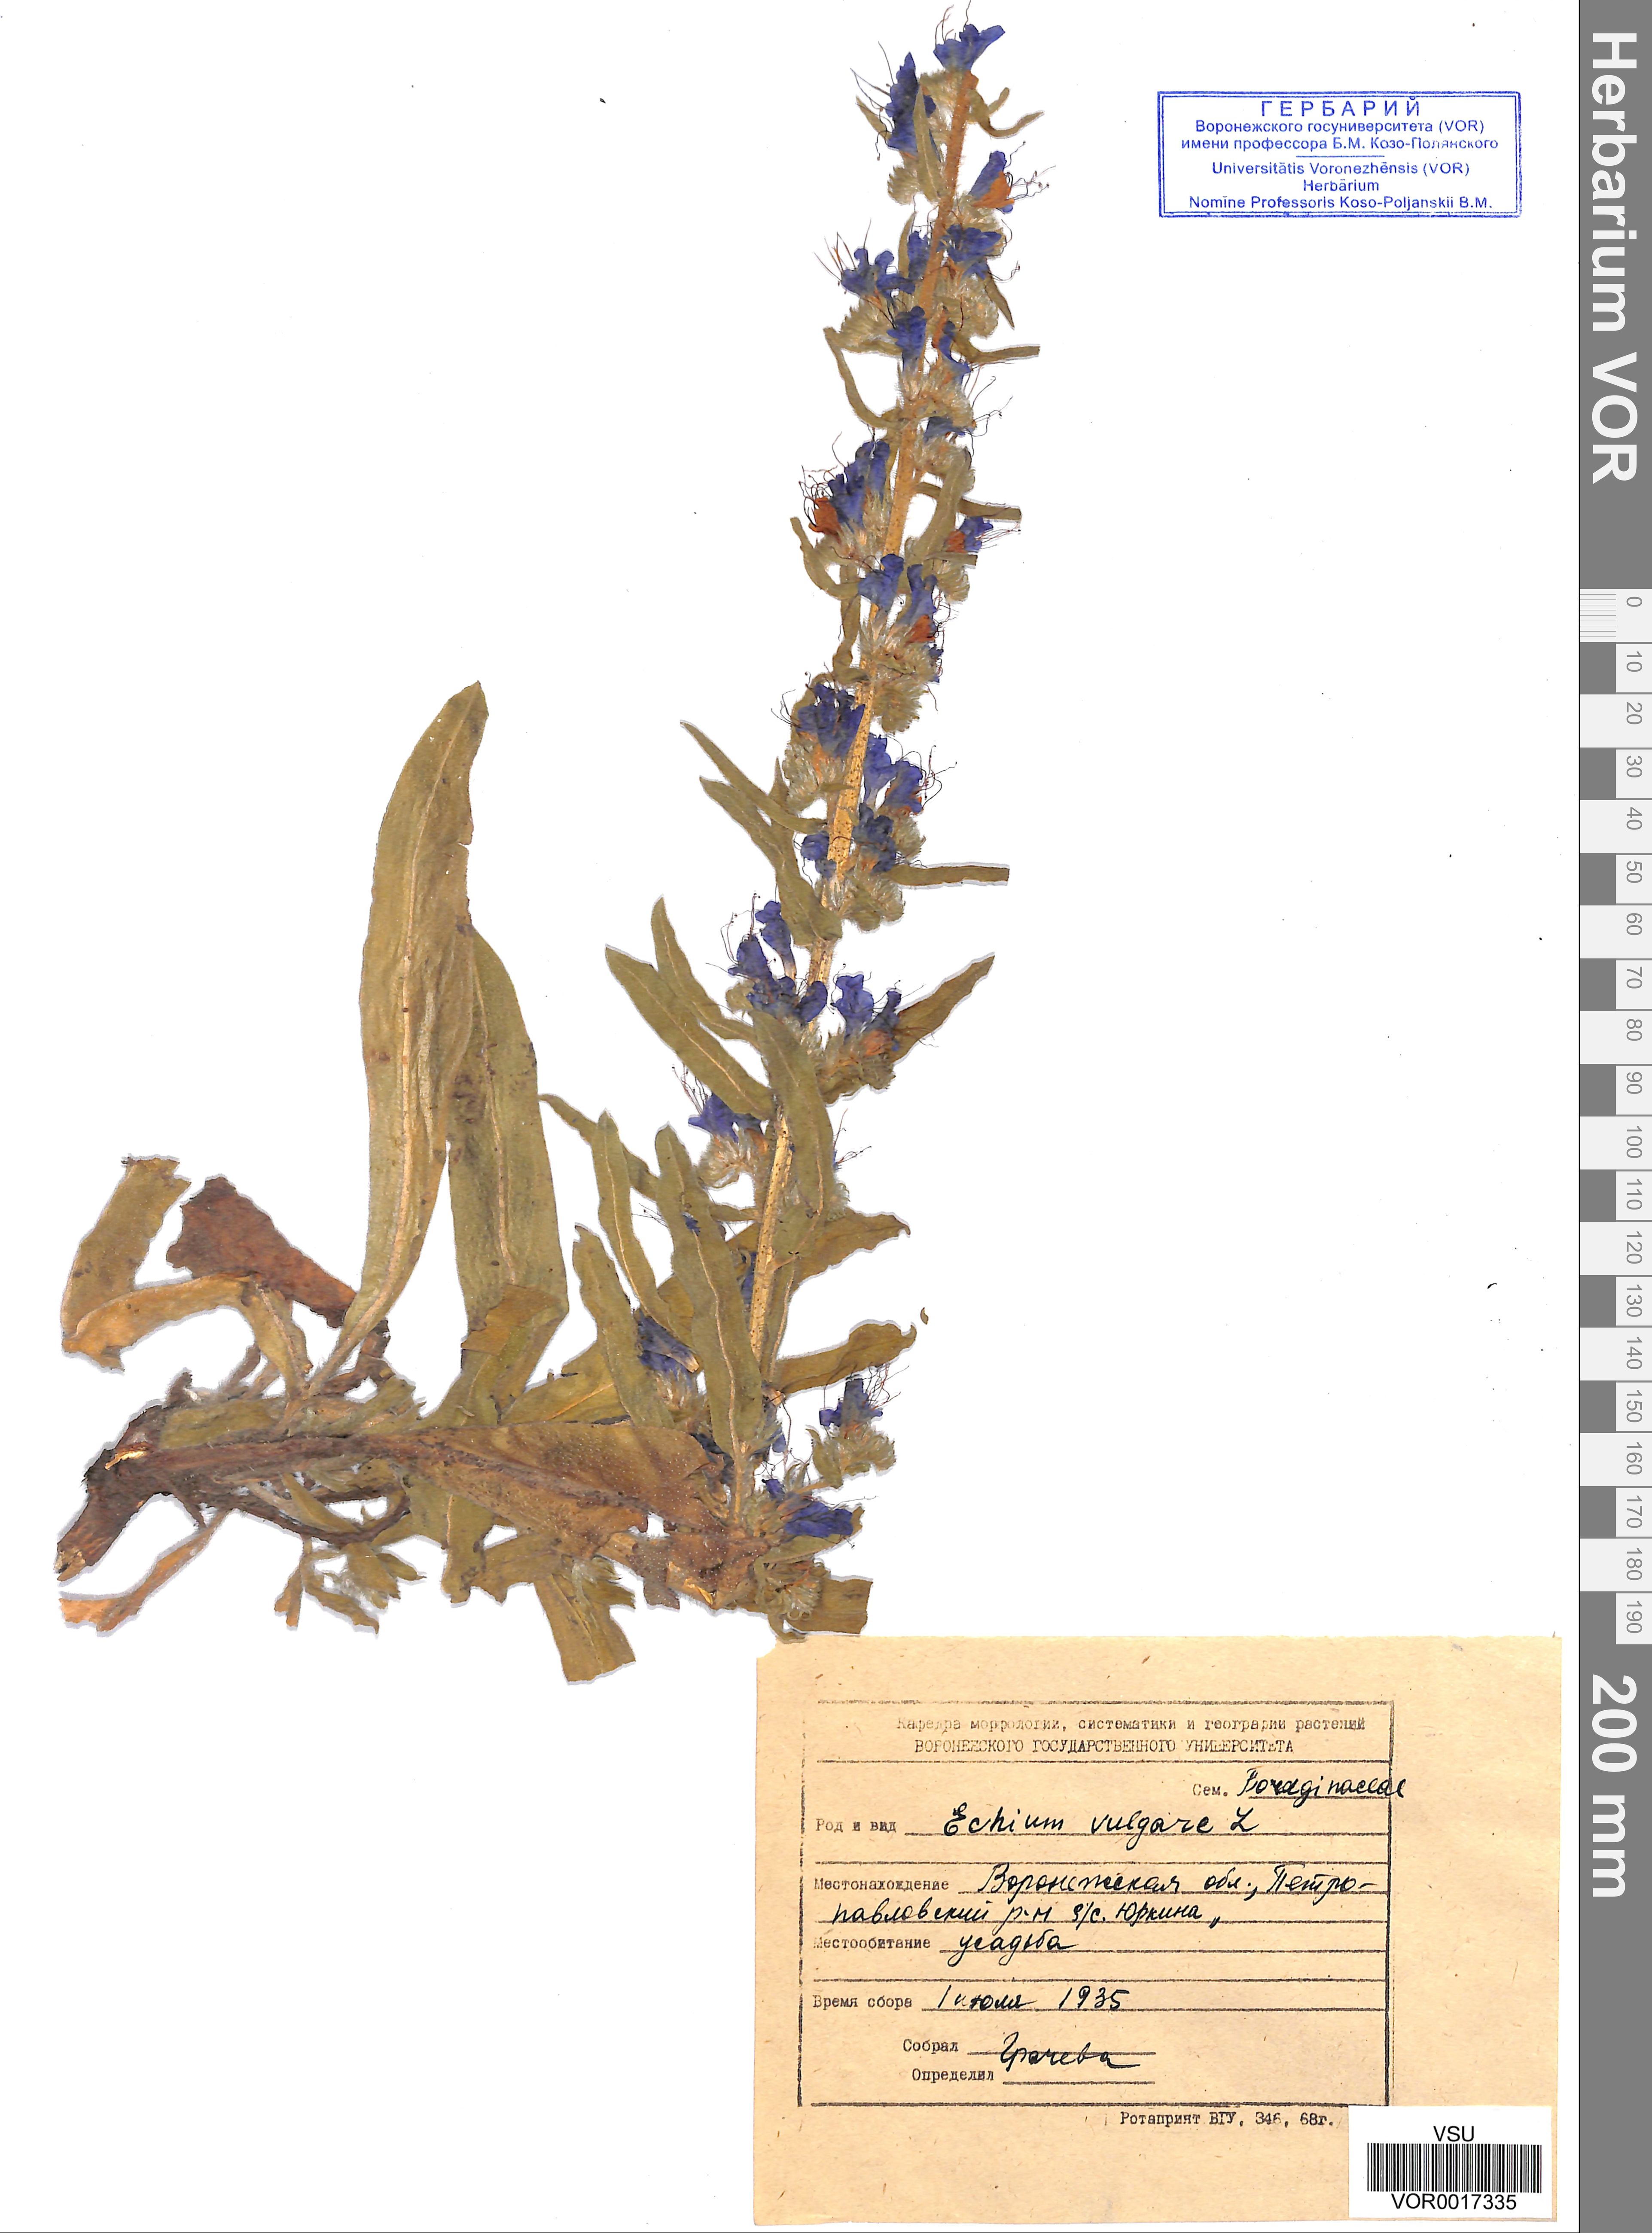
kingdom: Plantae
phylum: Tracheophyta
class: Magnoliopsida
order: Boraginales
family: Boraginaceae
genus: Echium
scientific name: Echium vulgare
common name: Common viper's bugloss
